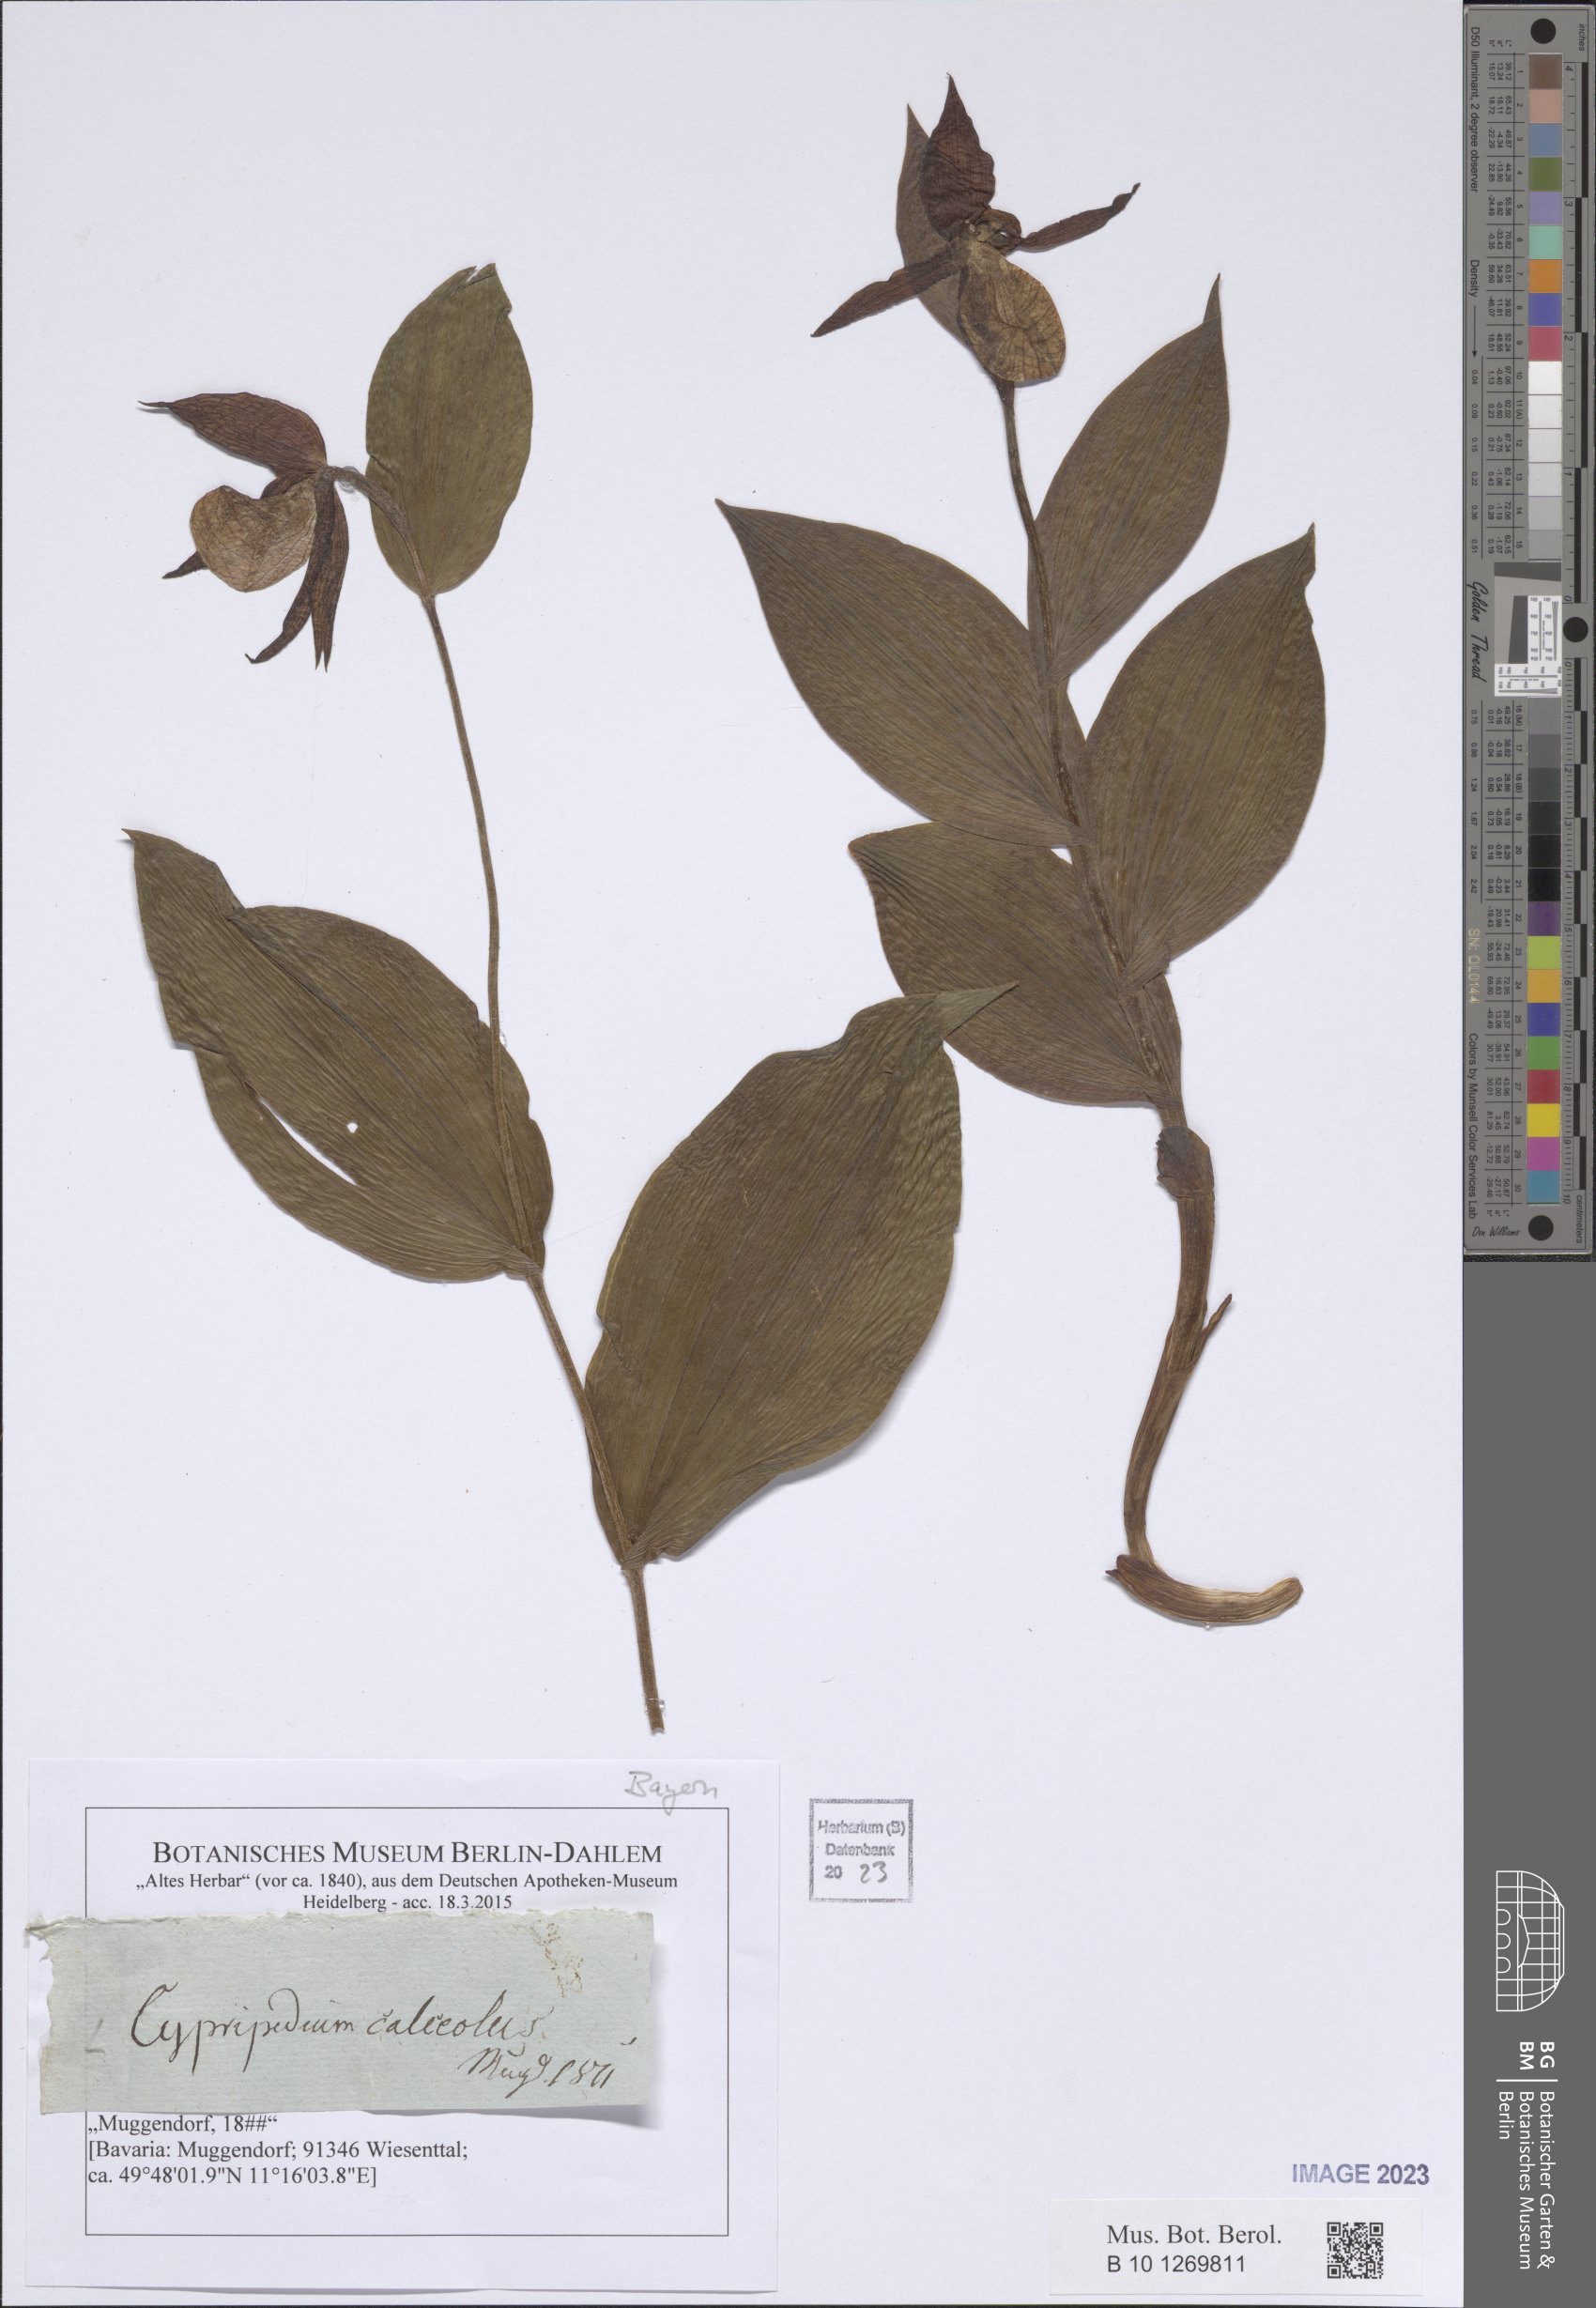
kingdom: Plantae
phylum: Tracheophyta
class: Liliopsida
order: Asparagales
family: Orchidaceae
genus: Cypripedium
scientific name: Cypripedium calceolus
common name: Lady's-slipper
